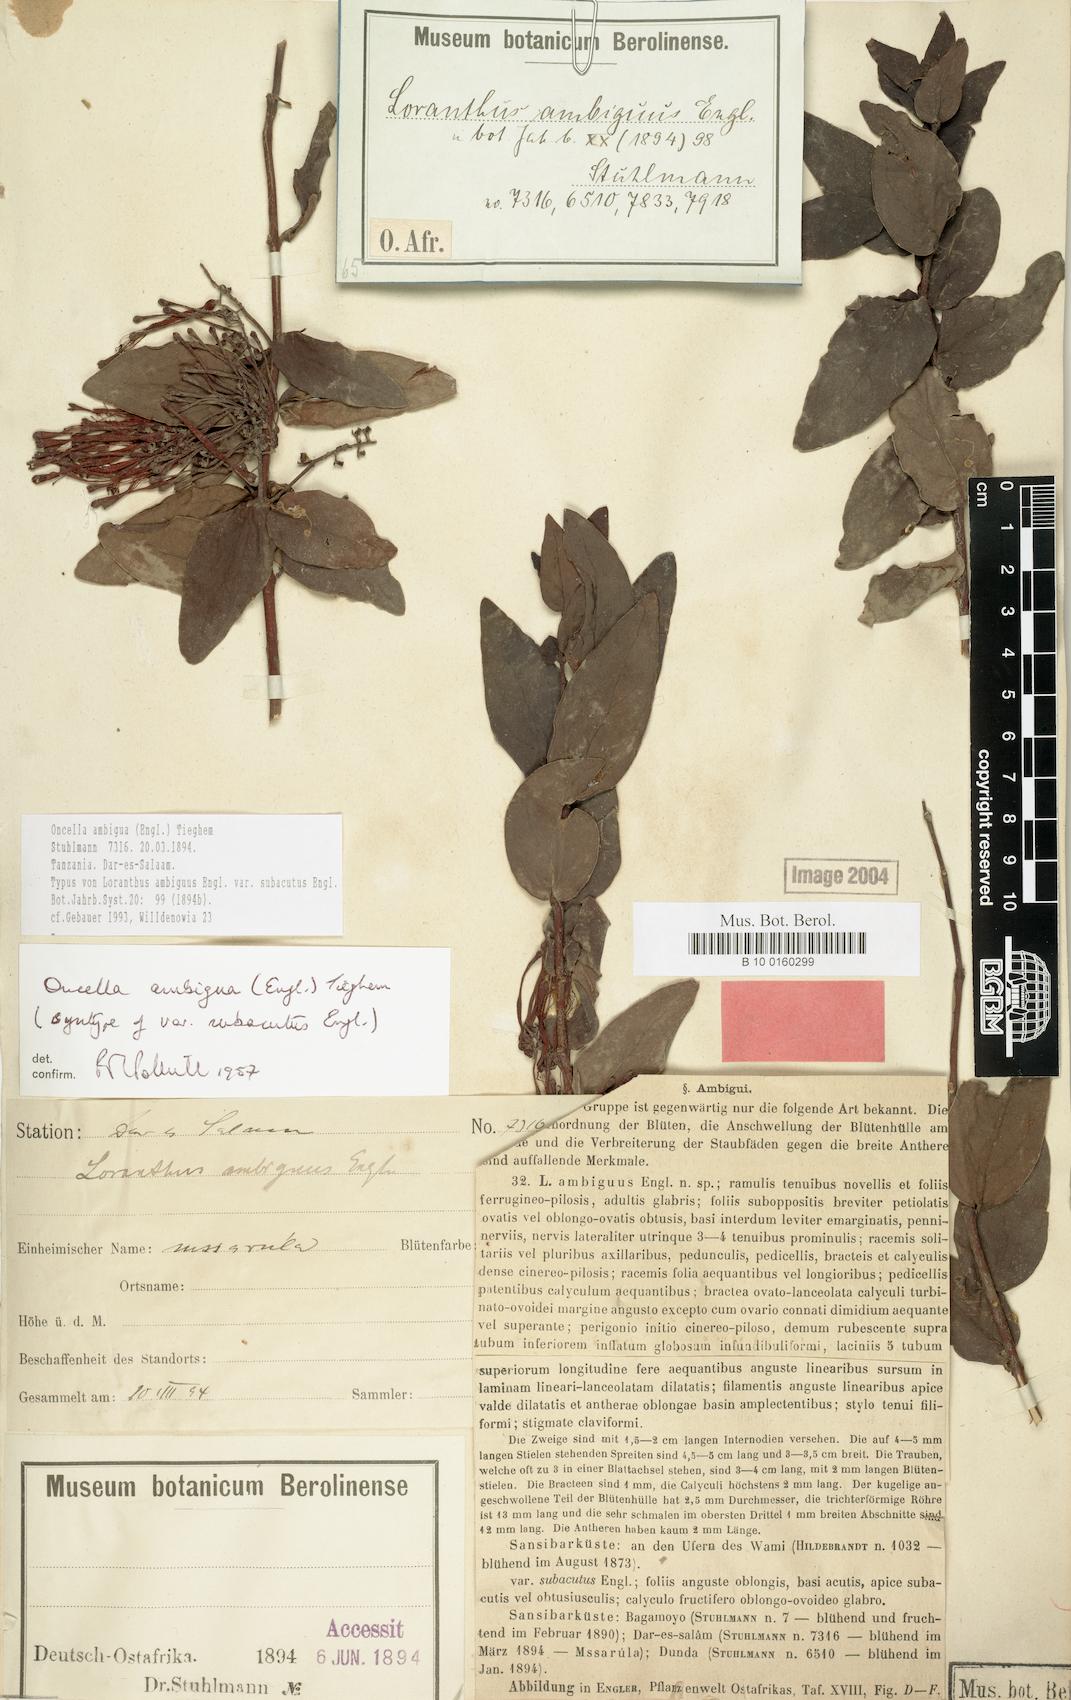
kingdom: Plantae
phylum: Tracheophyta
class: Magnoliopsida
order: Santalales
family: Loranthaceae
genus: Oncella
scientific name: Oncella ambigua
